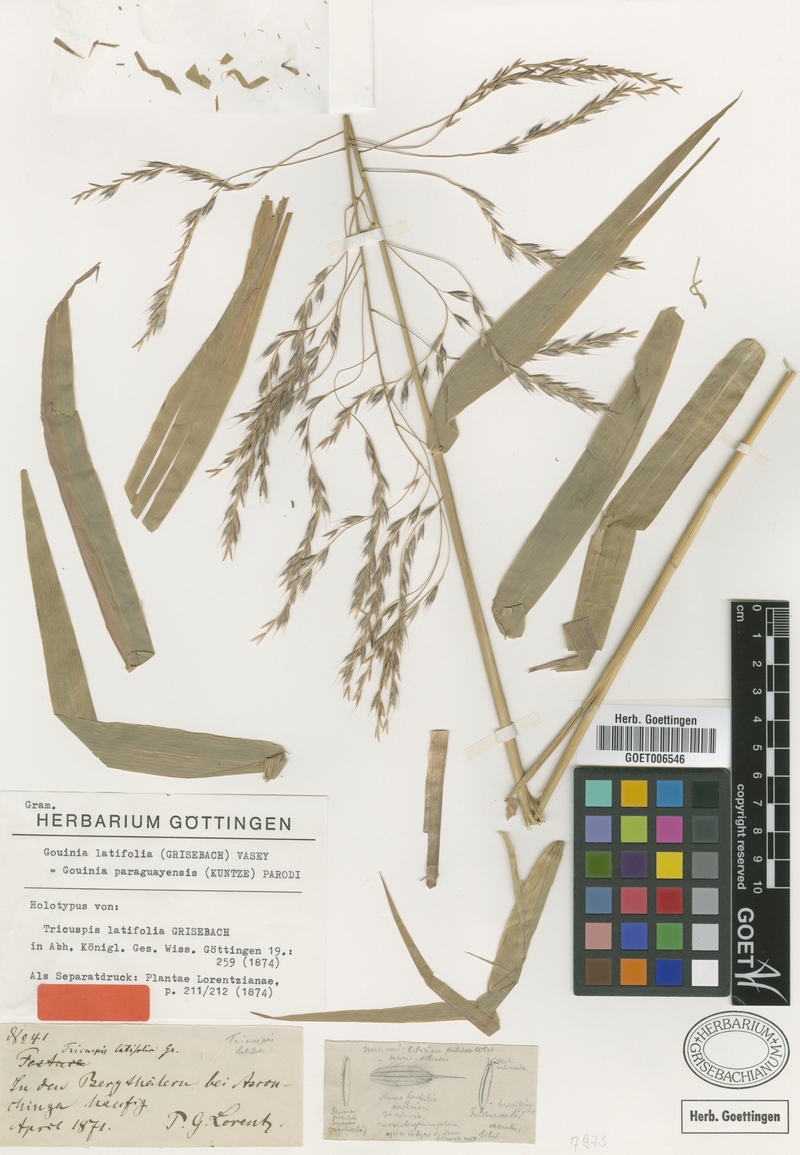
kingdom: Plantae
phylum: Tracheophyta
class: Liliopsida
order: Poales
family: Poaceae
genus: Gouinia
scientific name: Gouinia latifolia
